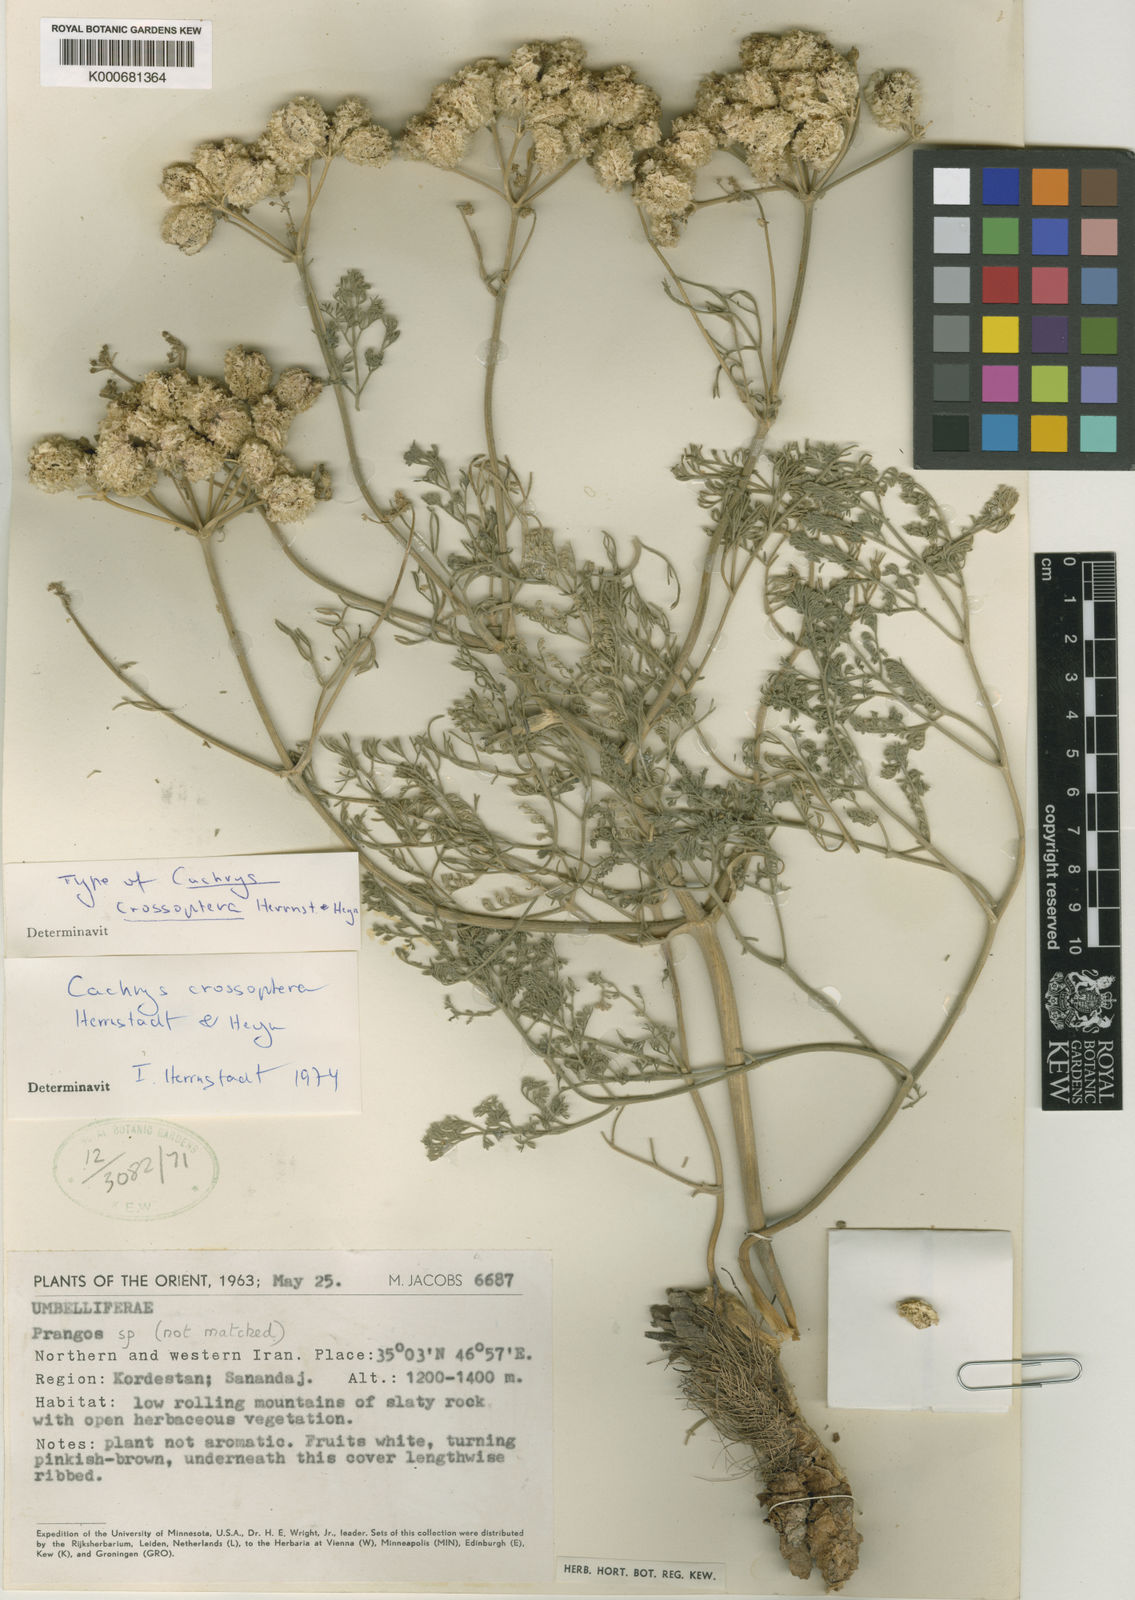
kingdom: Plantae
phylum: Tracheophyta
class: Magnoliopsida
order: Apiales
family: Apiaceae
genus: Prangos
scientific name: Prangos crossoptera
